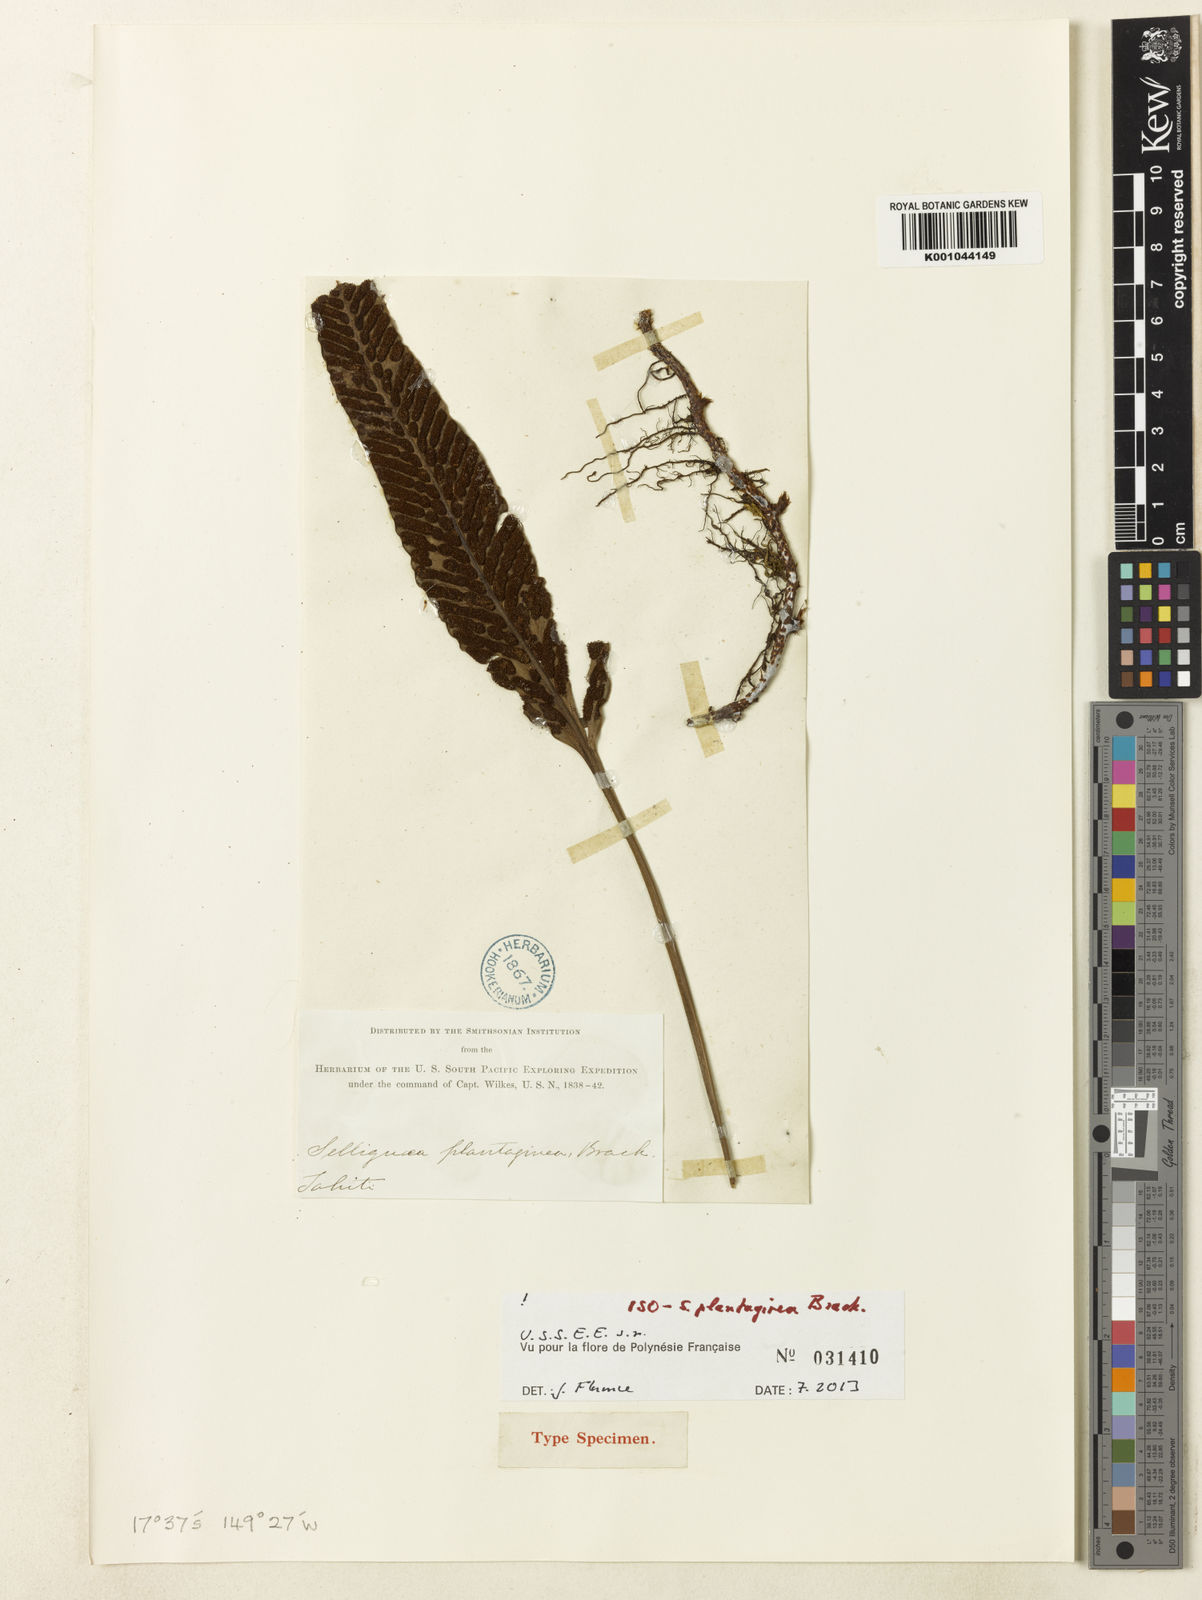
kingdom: Plantae
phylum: Tracheophyta
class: Polypodiopsida
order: Polypodiales
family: Polypodiaceae
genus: Selliguea
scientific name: Selliguea plantaginea
